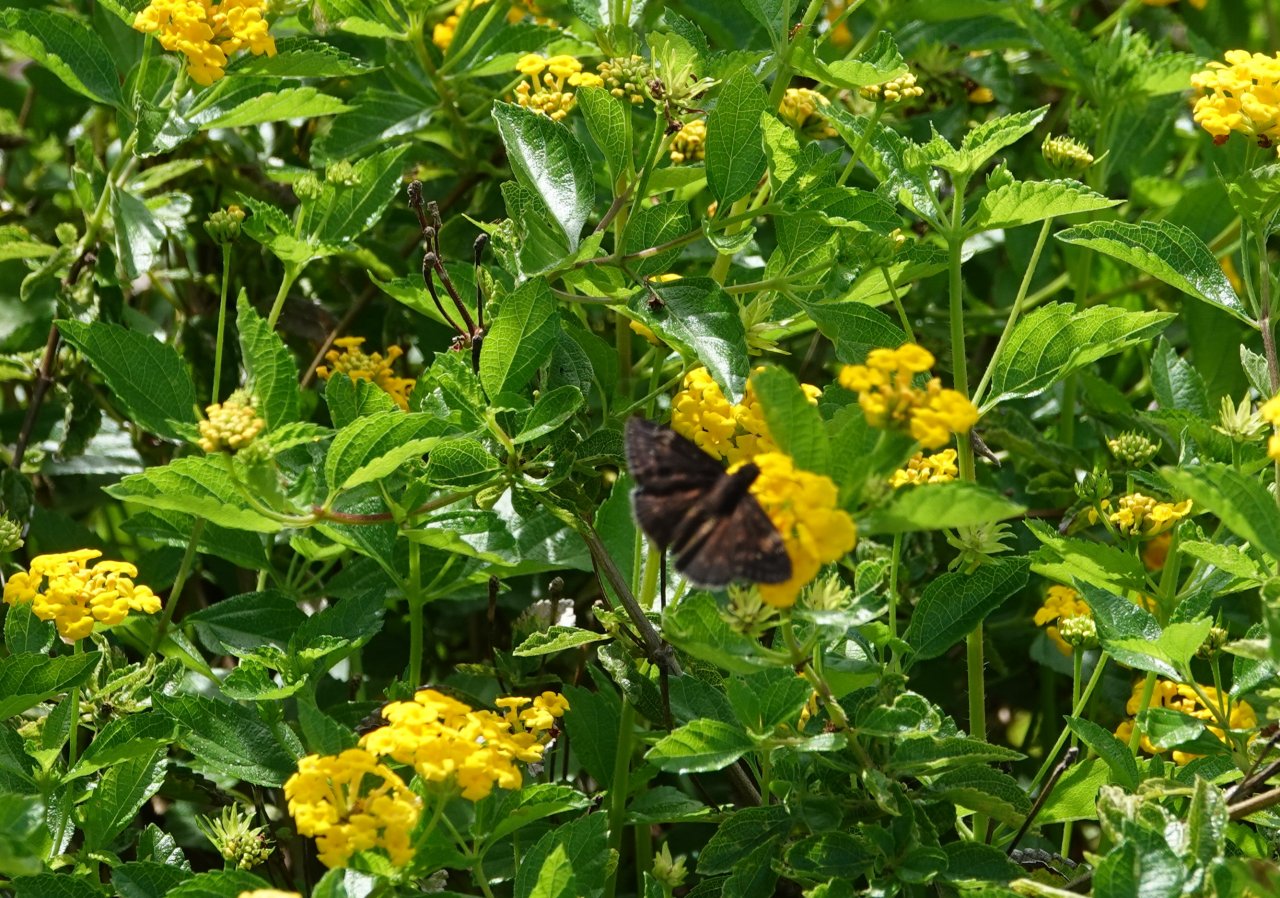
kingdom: Animalia
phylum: Arthropoda
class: Insecta
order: Lepidoptera
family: Hesperiidae
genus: Erynnis
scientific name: Erynnis zarucco
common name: Zarucco Duskywing
